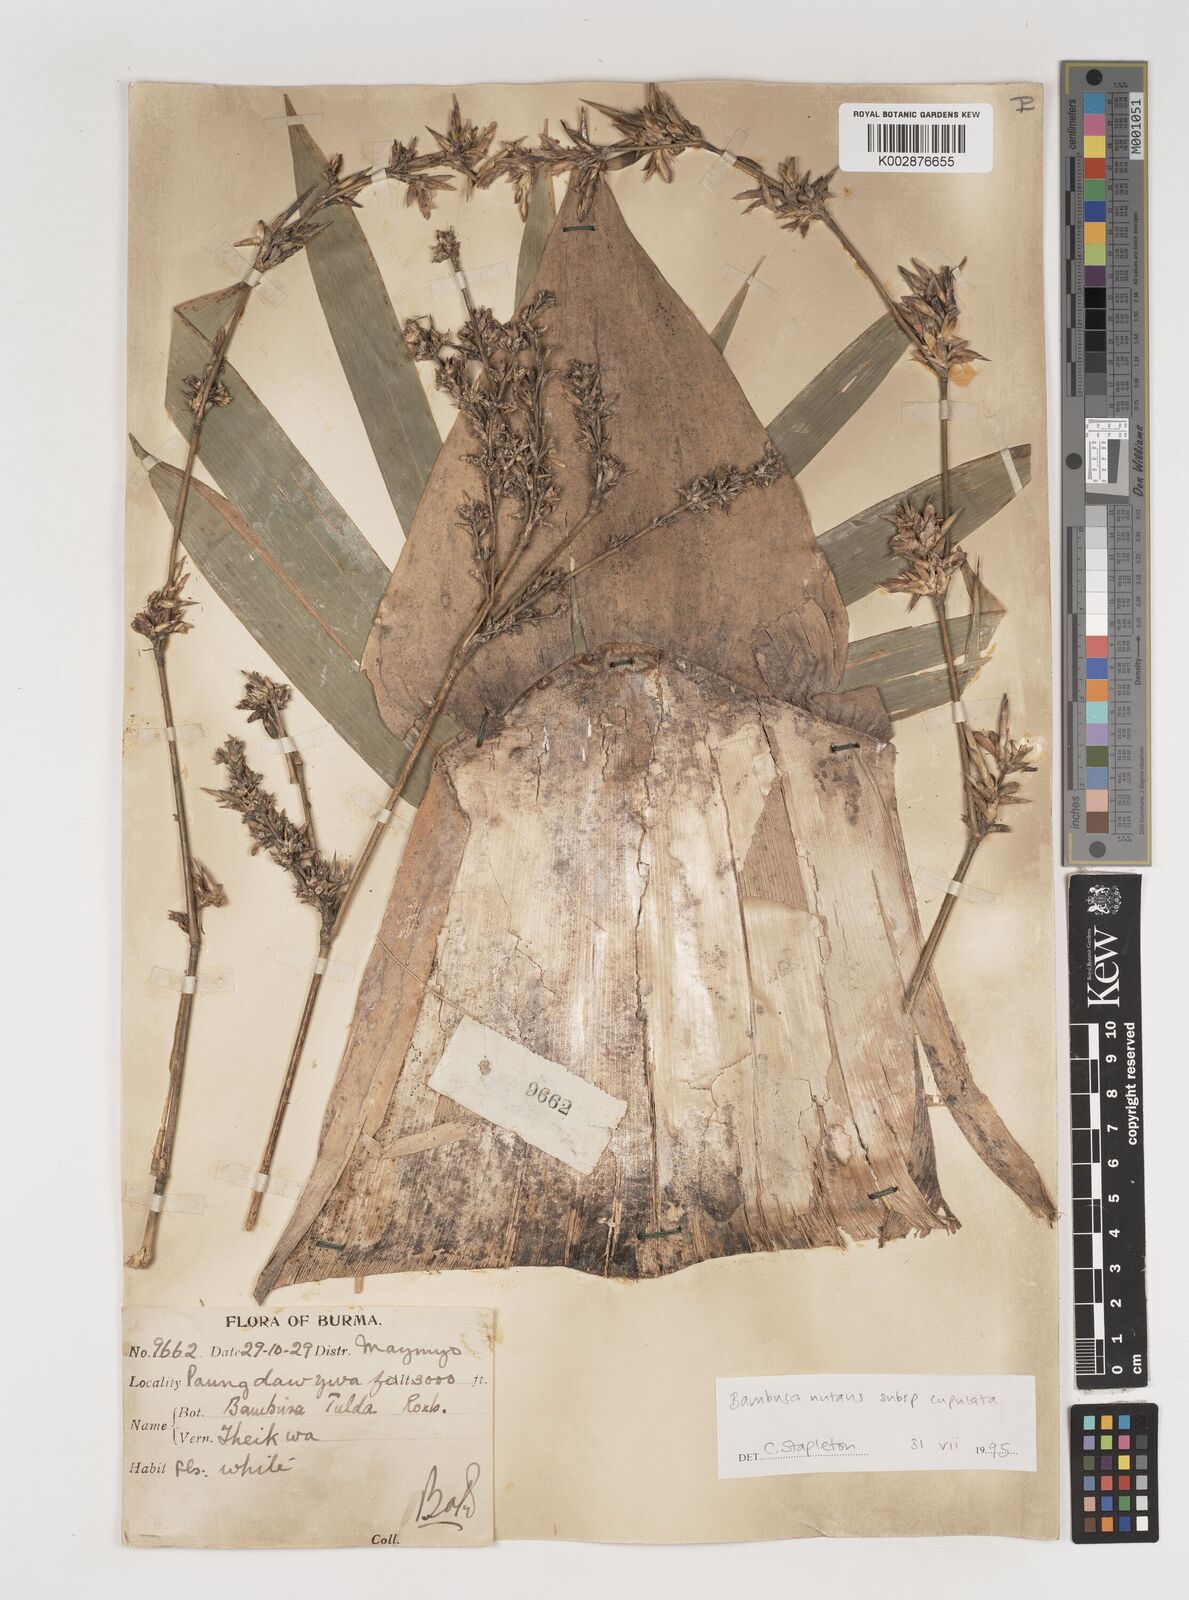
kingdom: Plantae
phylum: Tracheophyta
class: Liliopsida
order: Poales
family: Poaceae
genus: Bambusa
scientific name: Bambusa nutans
